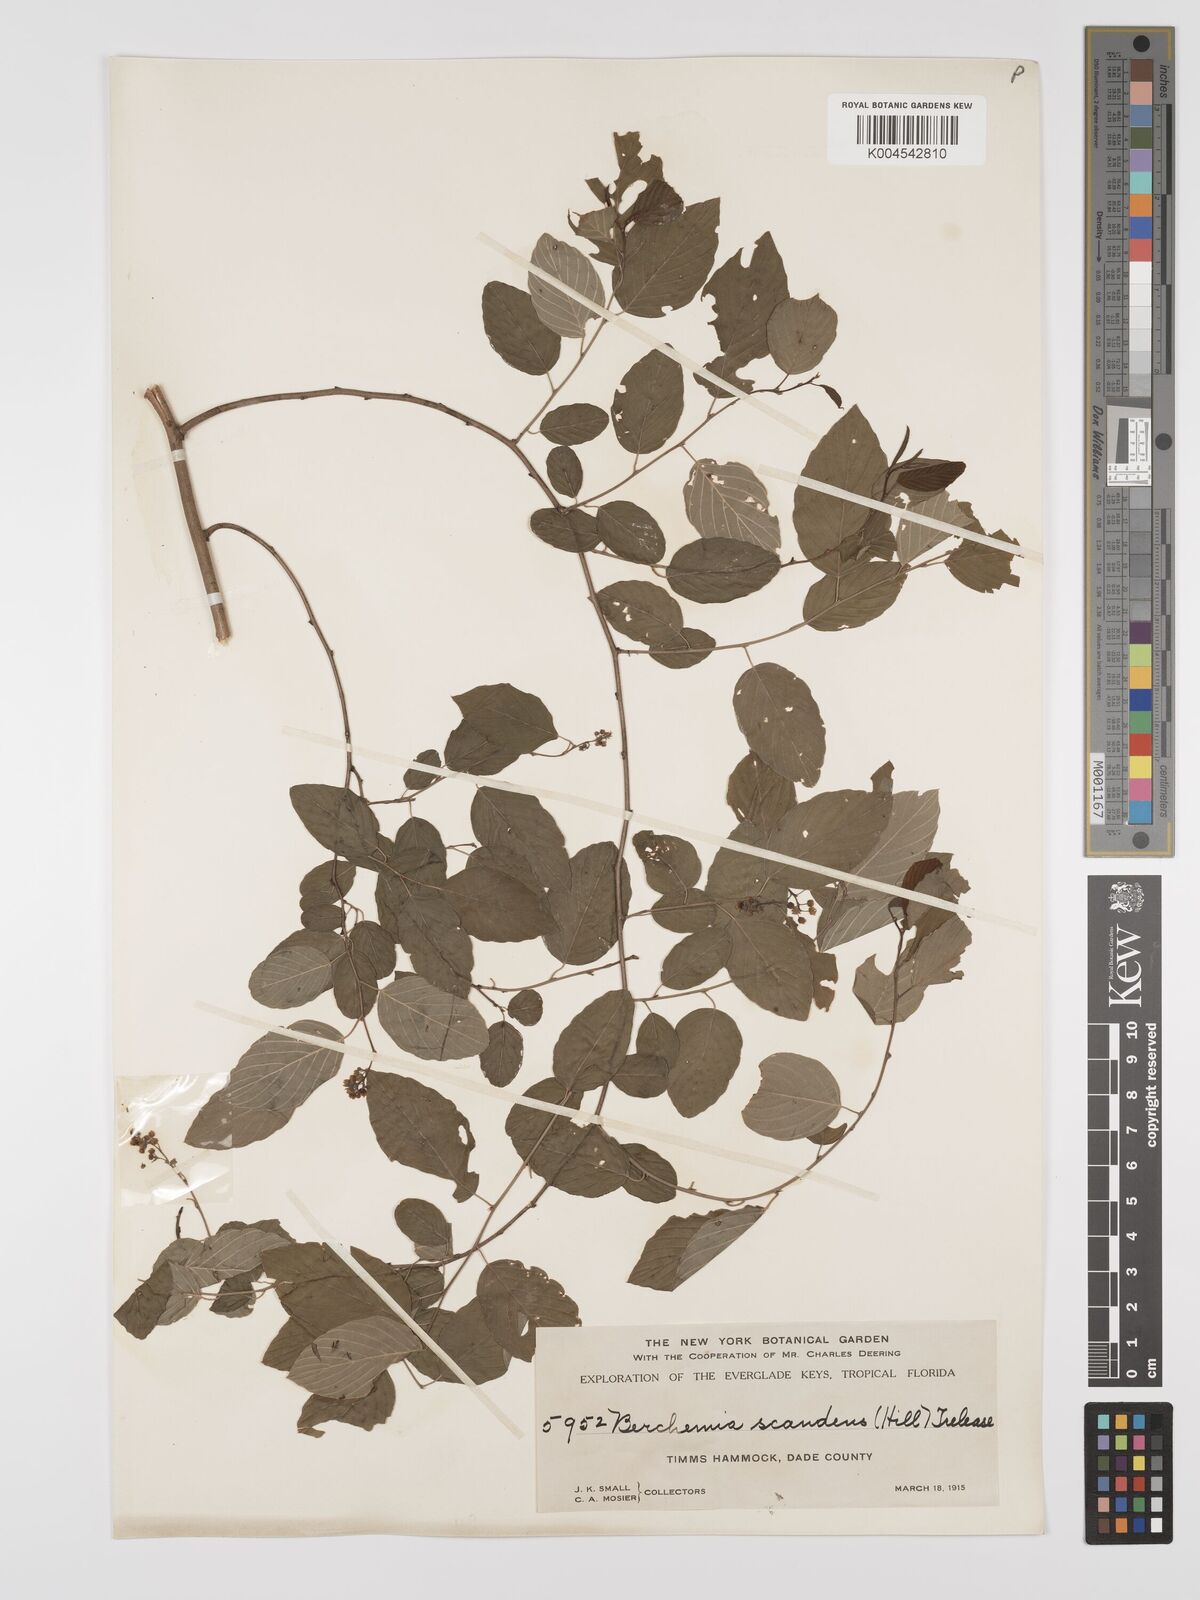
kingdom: Plantae
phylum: Tracheophyta
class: Magnoliopsida
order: Rosales
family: Rhamnaceae
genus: Berchemia
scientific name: Berchemia scandens
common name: Supplejack
